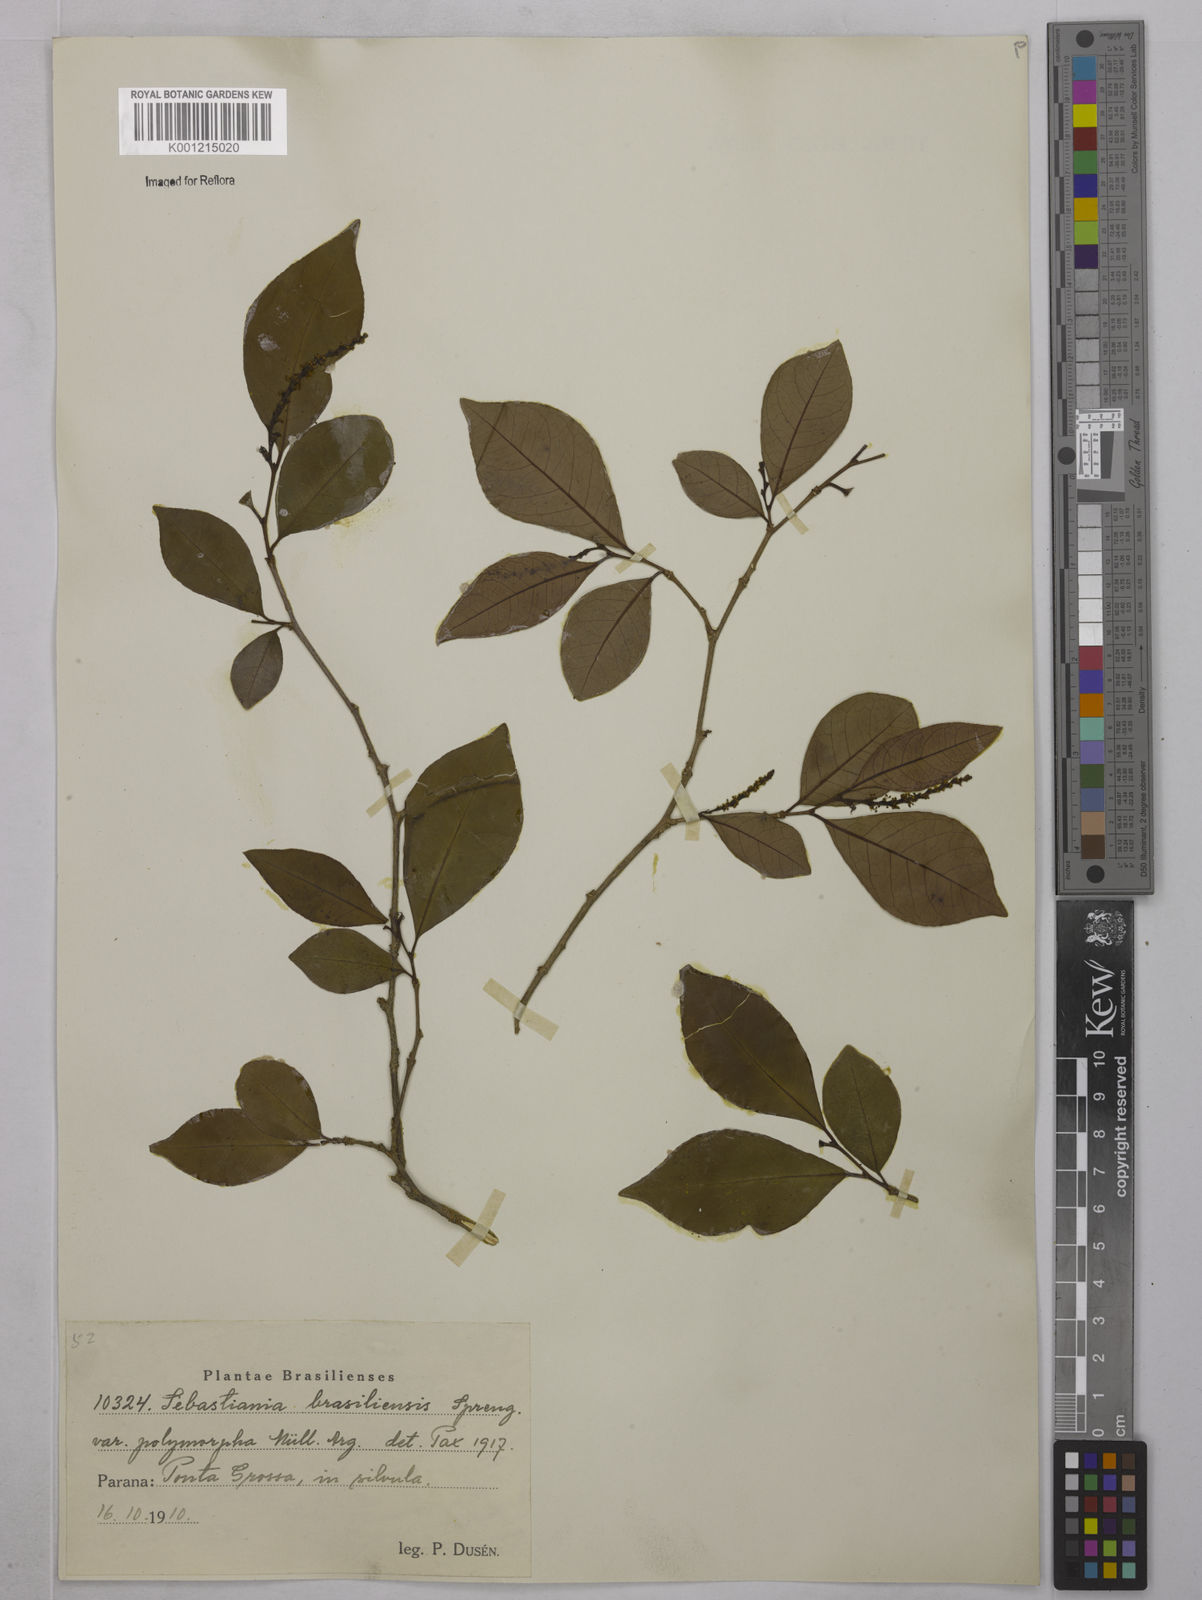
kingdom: Plantae
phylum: Tracheophyta
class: Magnoliopsida
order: Malpighiales
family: Euphorbiaceae
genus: Sebastiania
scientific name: Sebastiania brasiliensis
